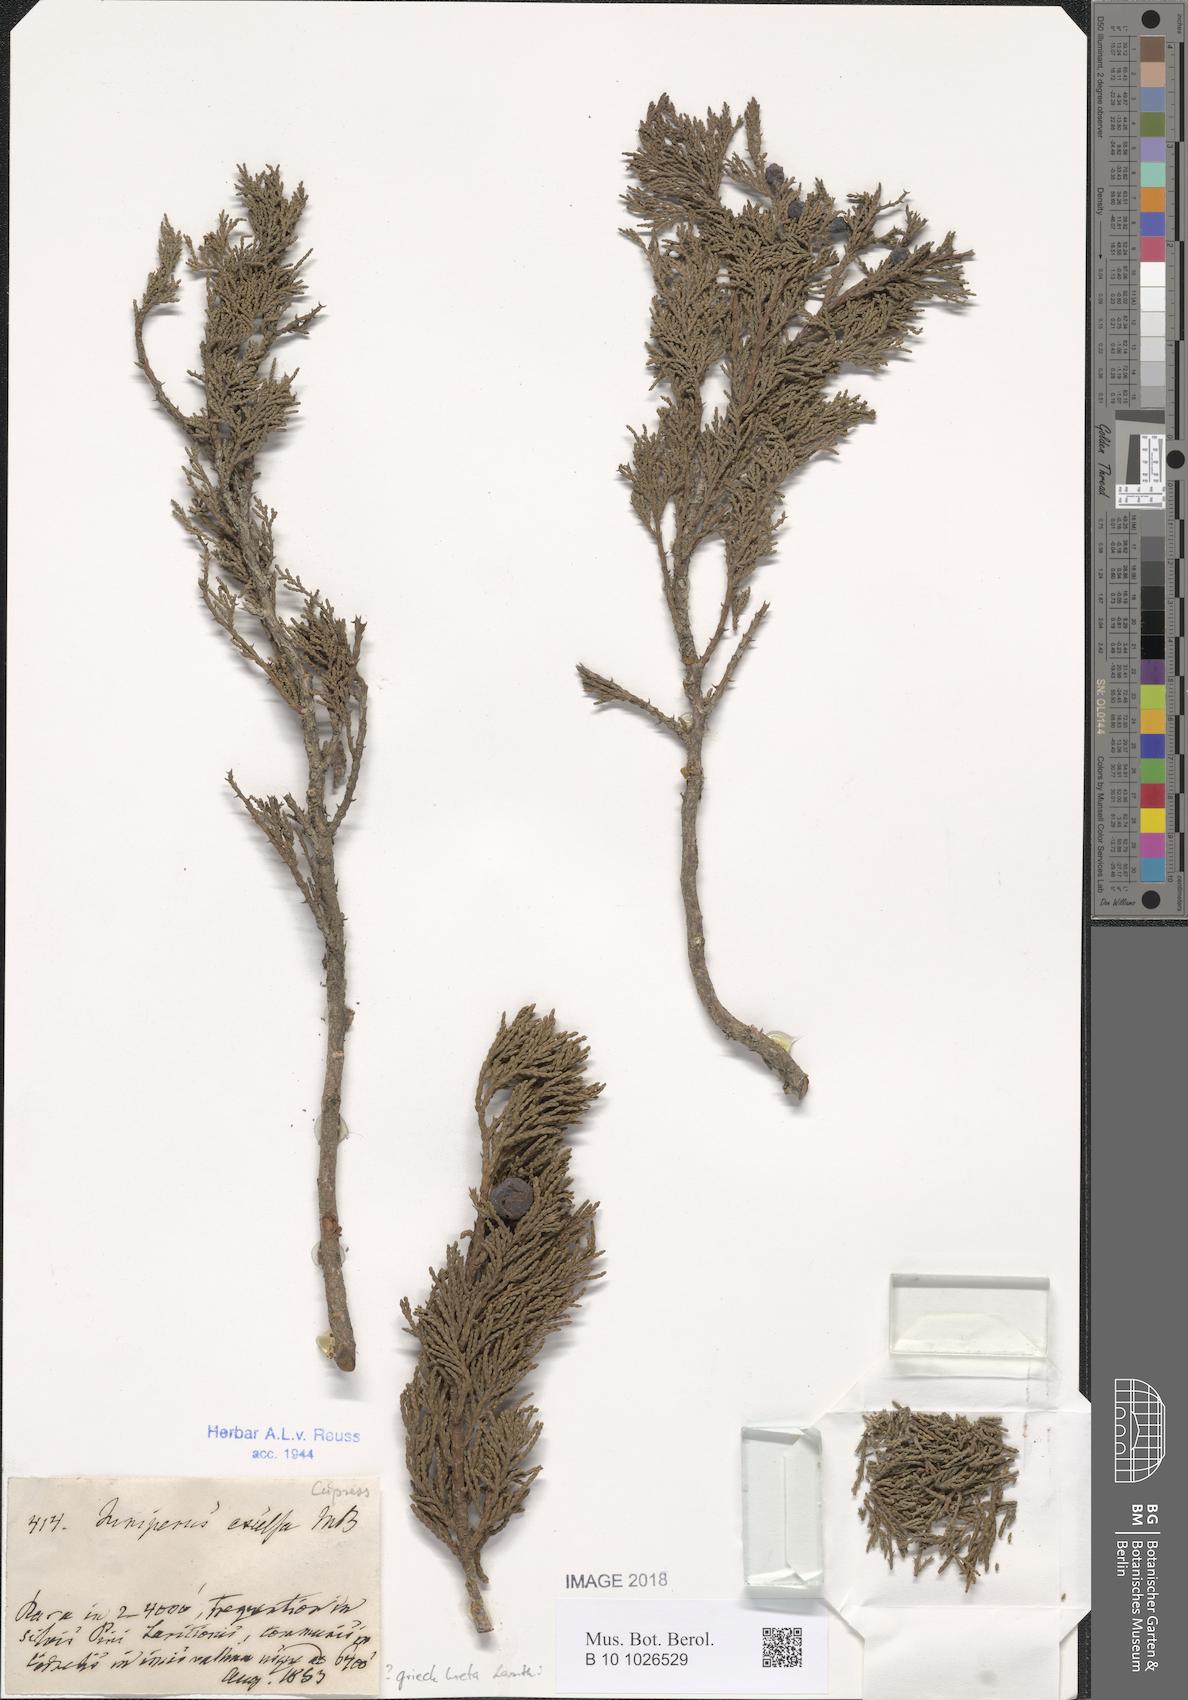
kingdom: Plantae
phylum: Tracheophyta
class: Pinopsida
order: Pinales
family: Cupressaceae
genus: Juniperus
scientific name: Juniperus excelsa
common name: Crimean juniper
